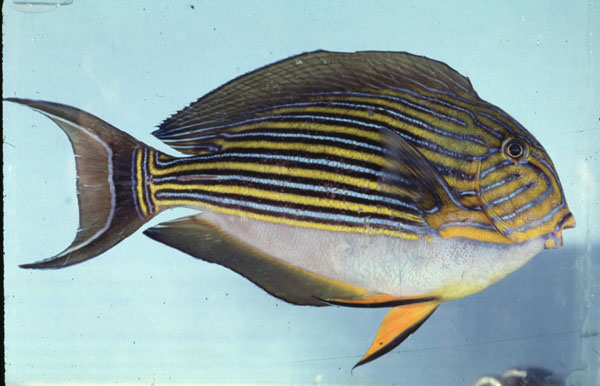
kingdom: Animalia
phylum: Chordata
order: Perciformes
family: Acanthuridae
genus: Acanthurus
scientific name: Acanthurus lineatus
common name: Striped surgeonfish
